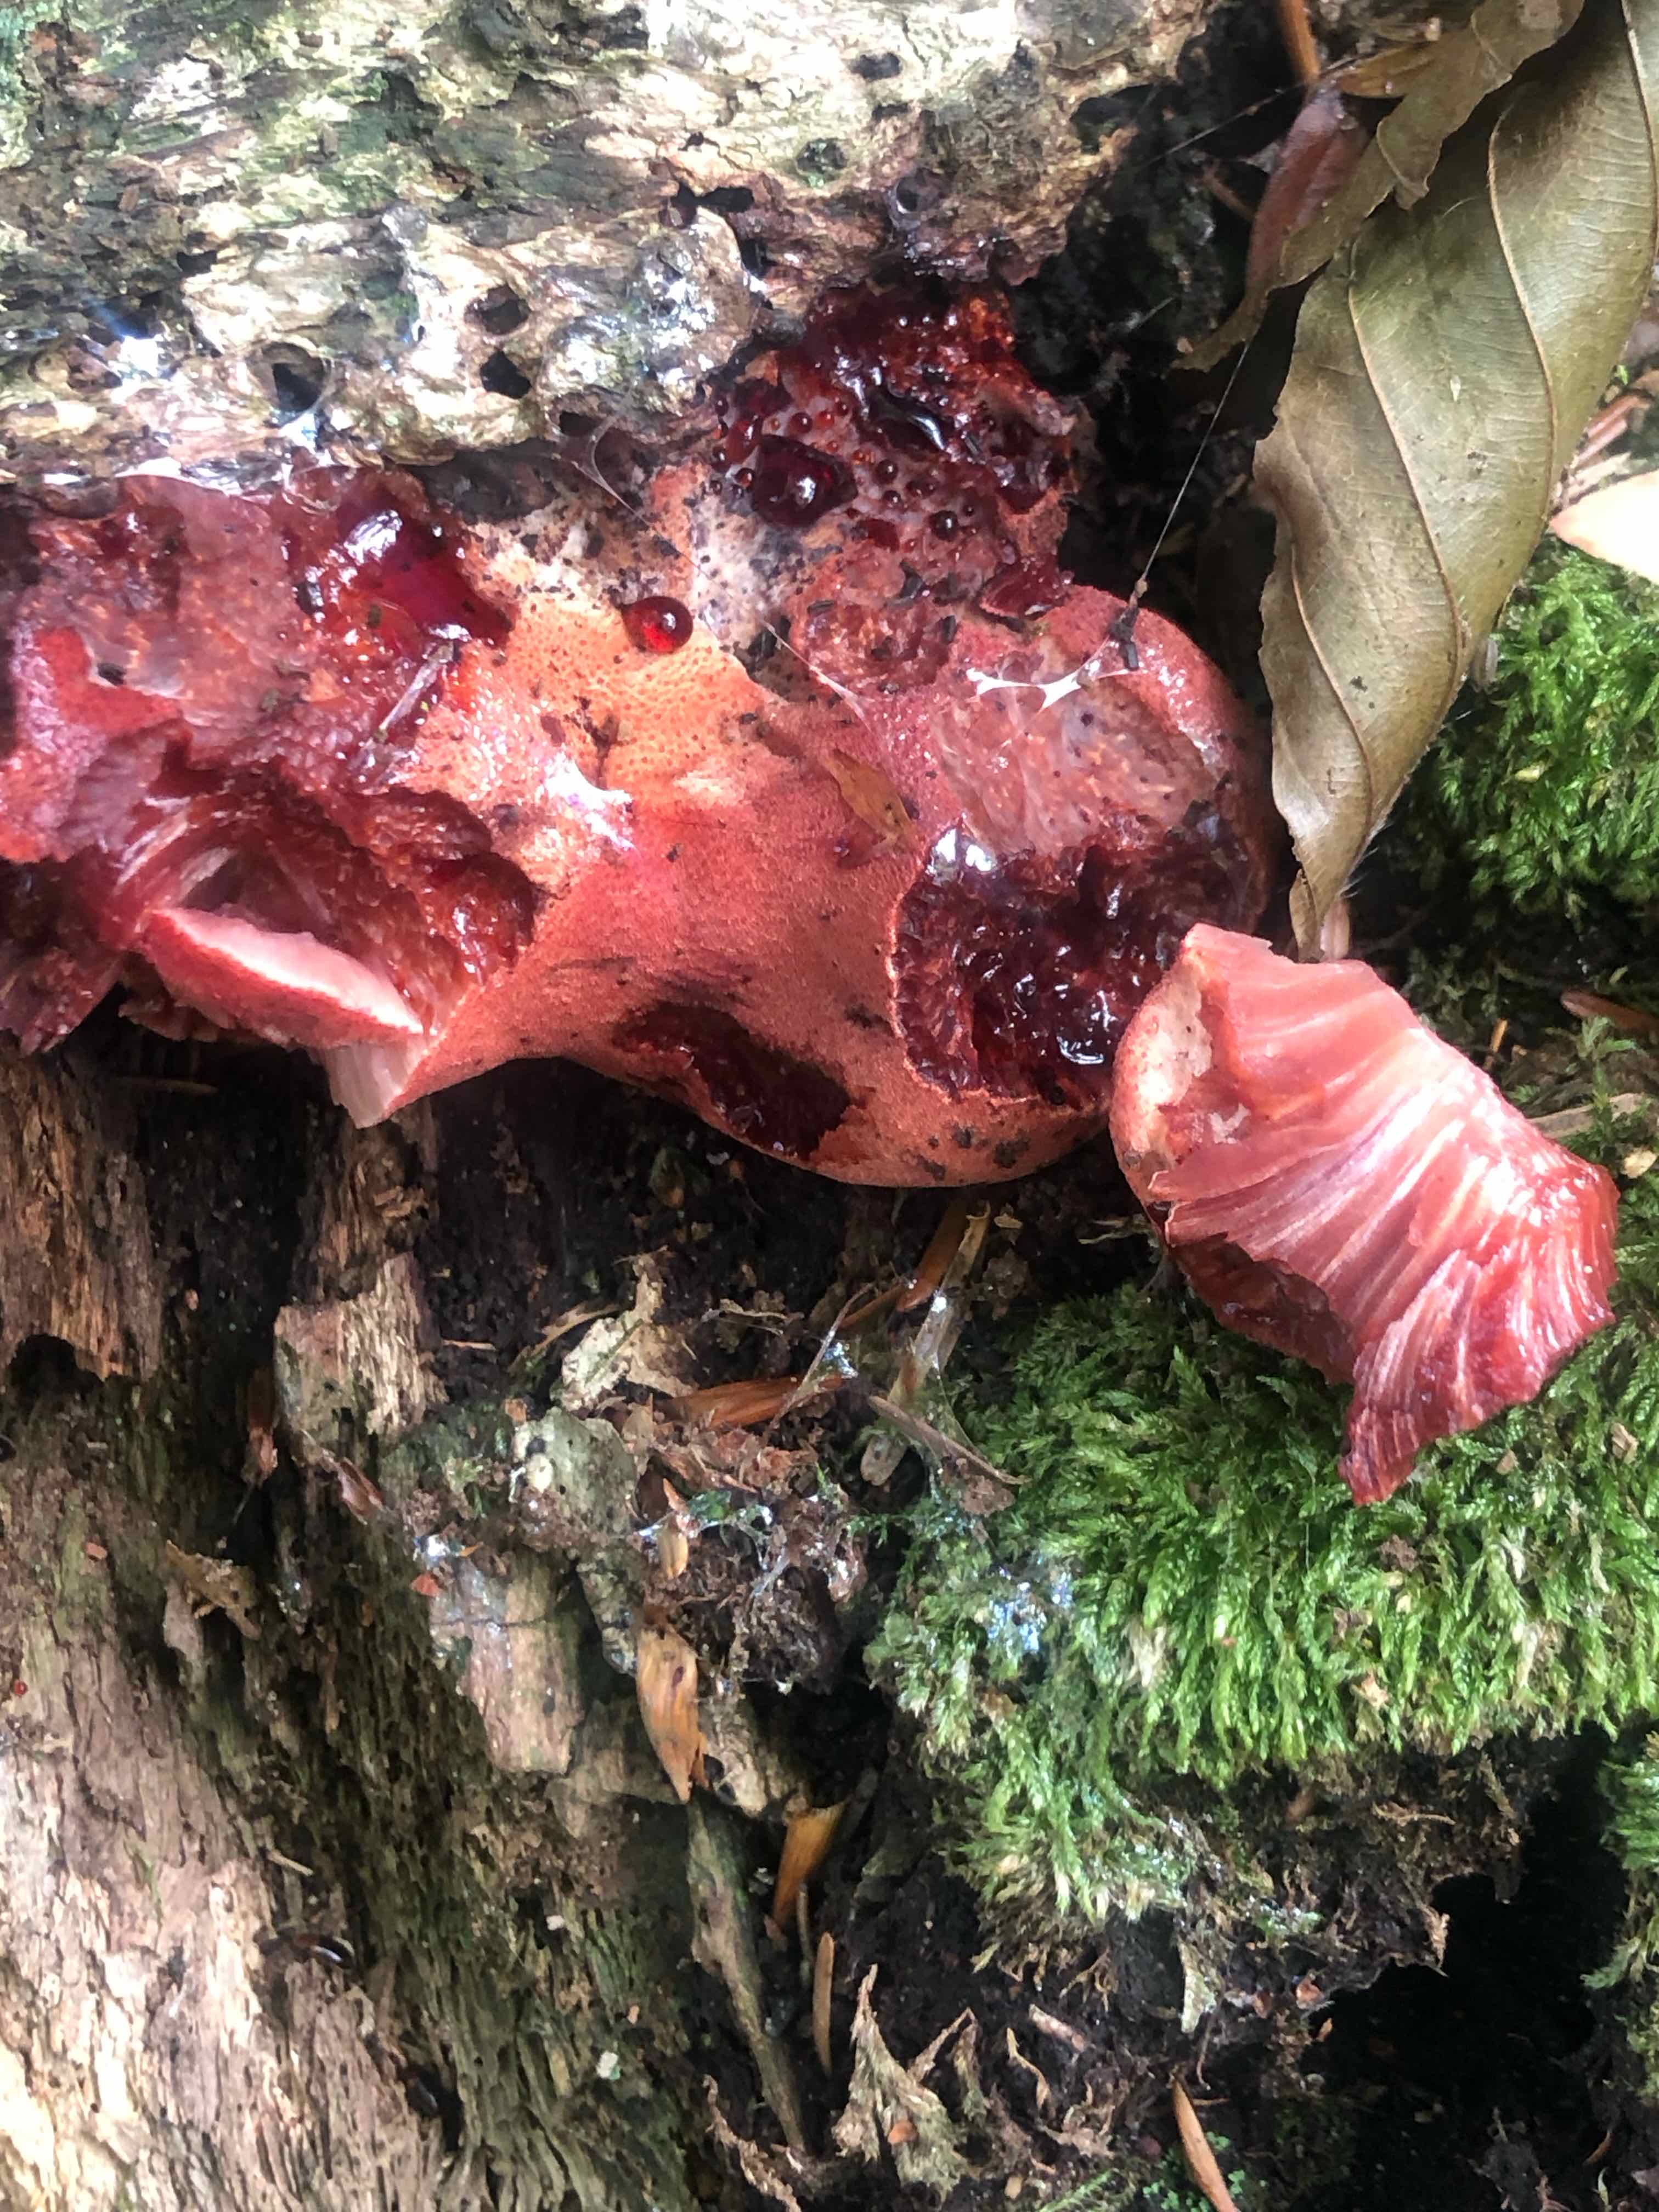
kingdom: Fungi
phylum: Basidiomycota
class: Agaricomycetes
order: Agaricales
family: Fistulinaceae
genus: Fistulina
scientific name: Fistulina hepatica
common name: oksetunge
